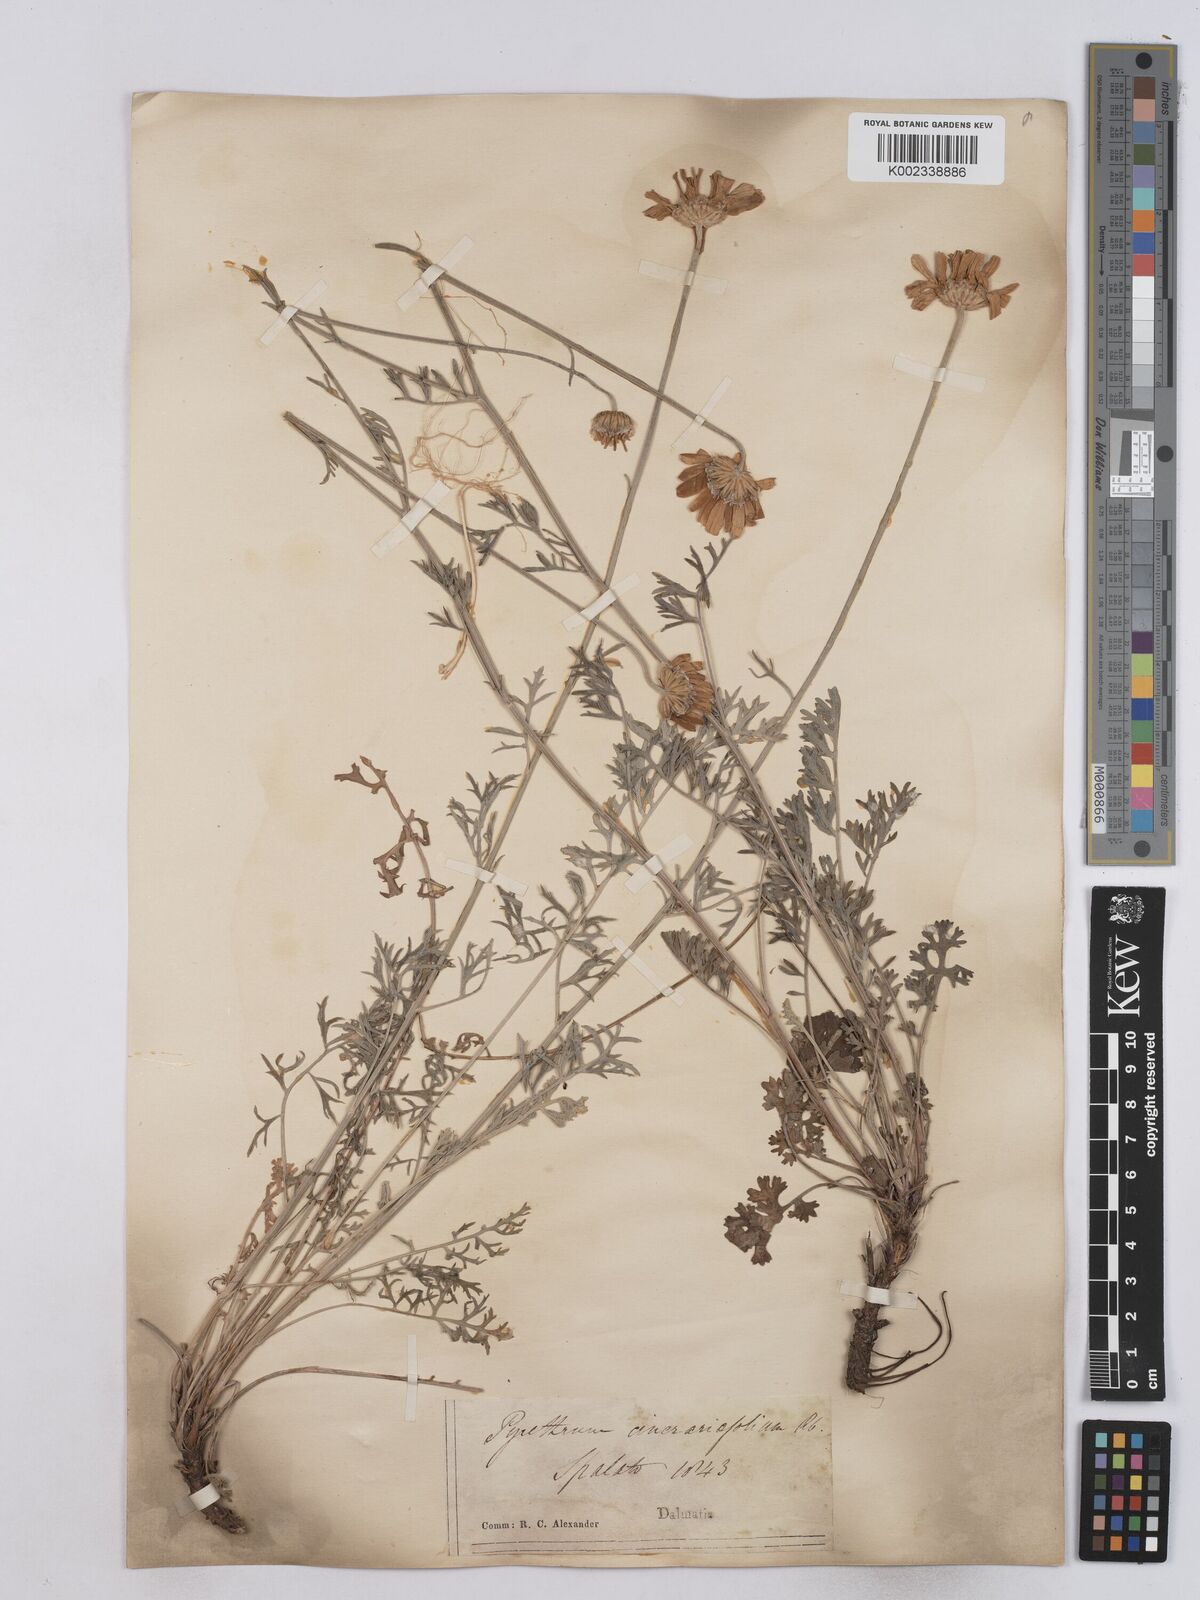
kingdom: Plantae
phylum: Tracheophyta
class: Magnoliopsida
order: Asterales
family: Asteraceae
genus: Tanacetum
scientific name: Tanacetum cinerariifolium
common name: Dalmatian pyrethrum
